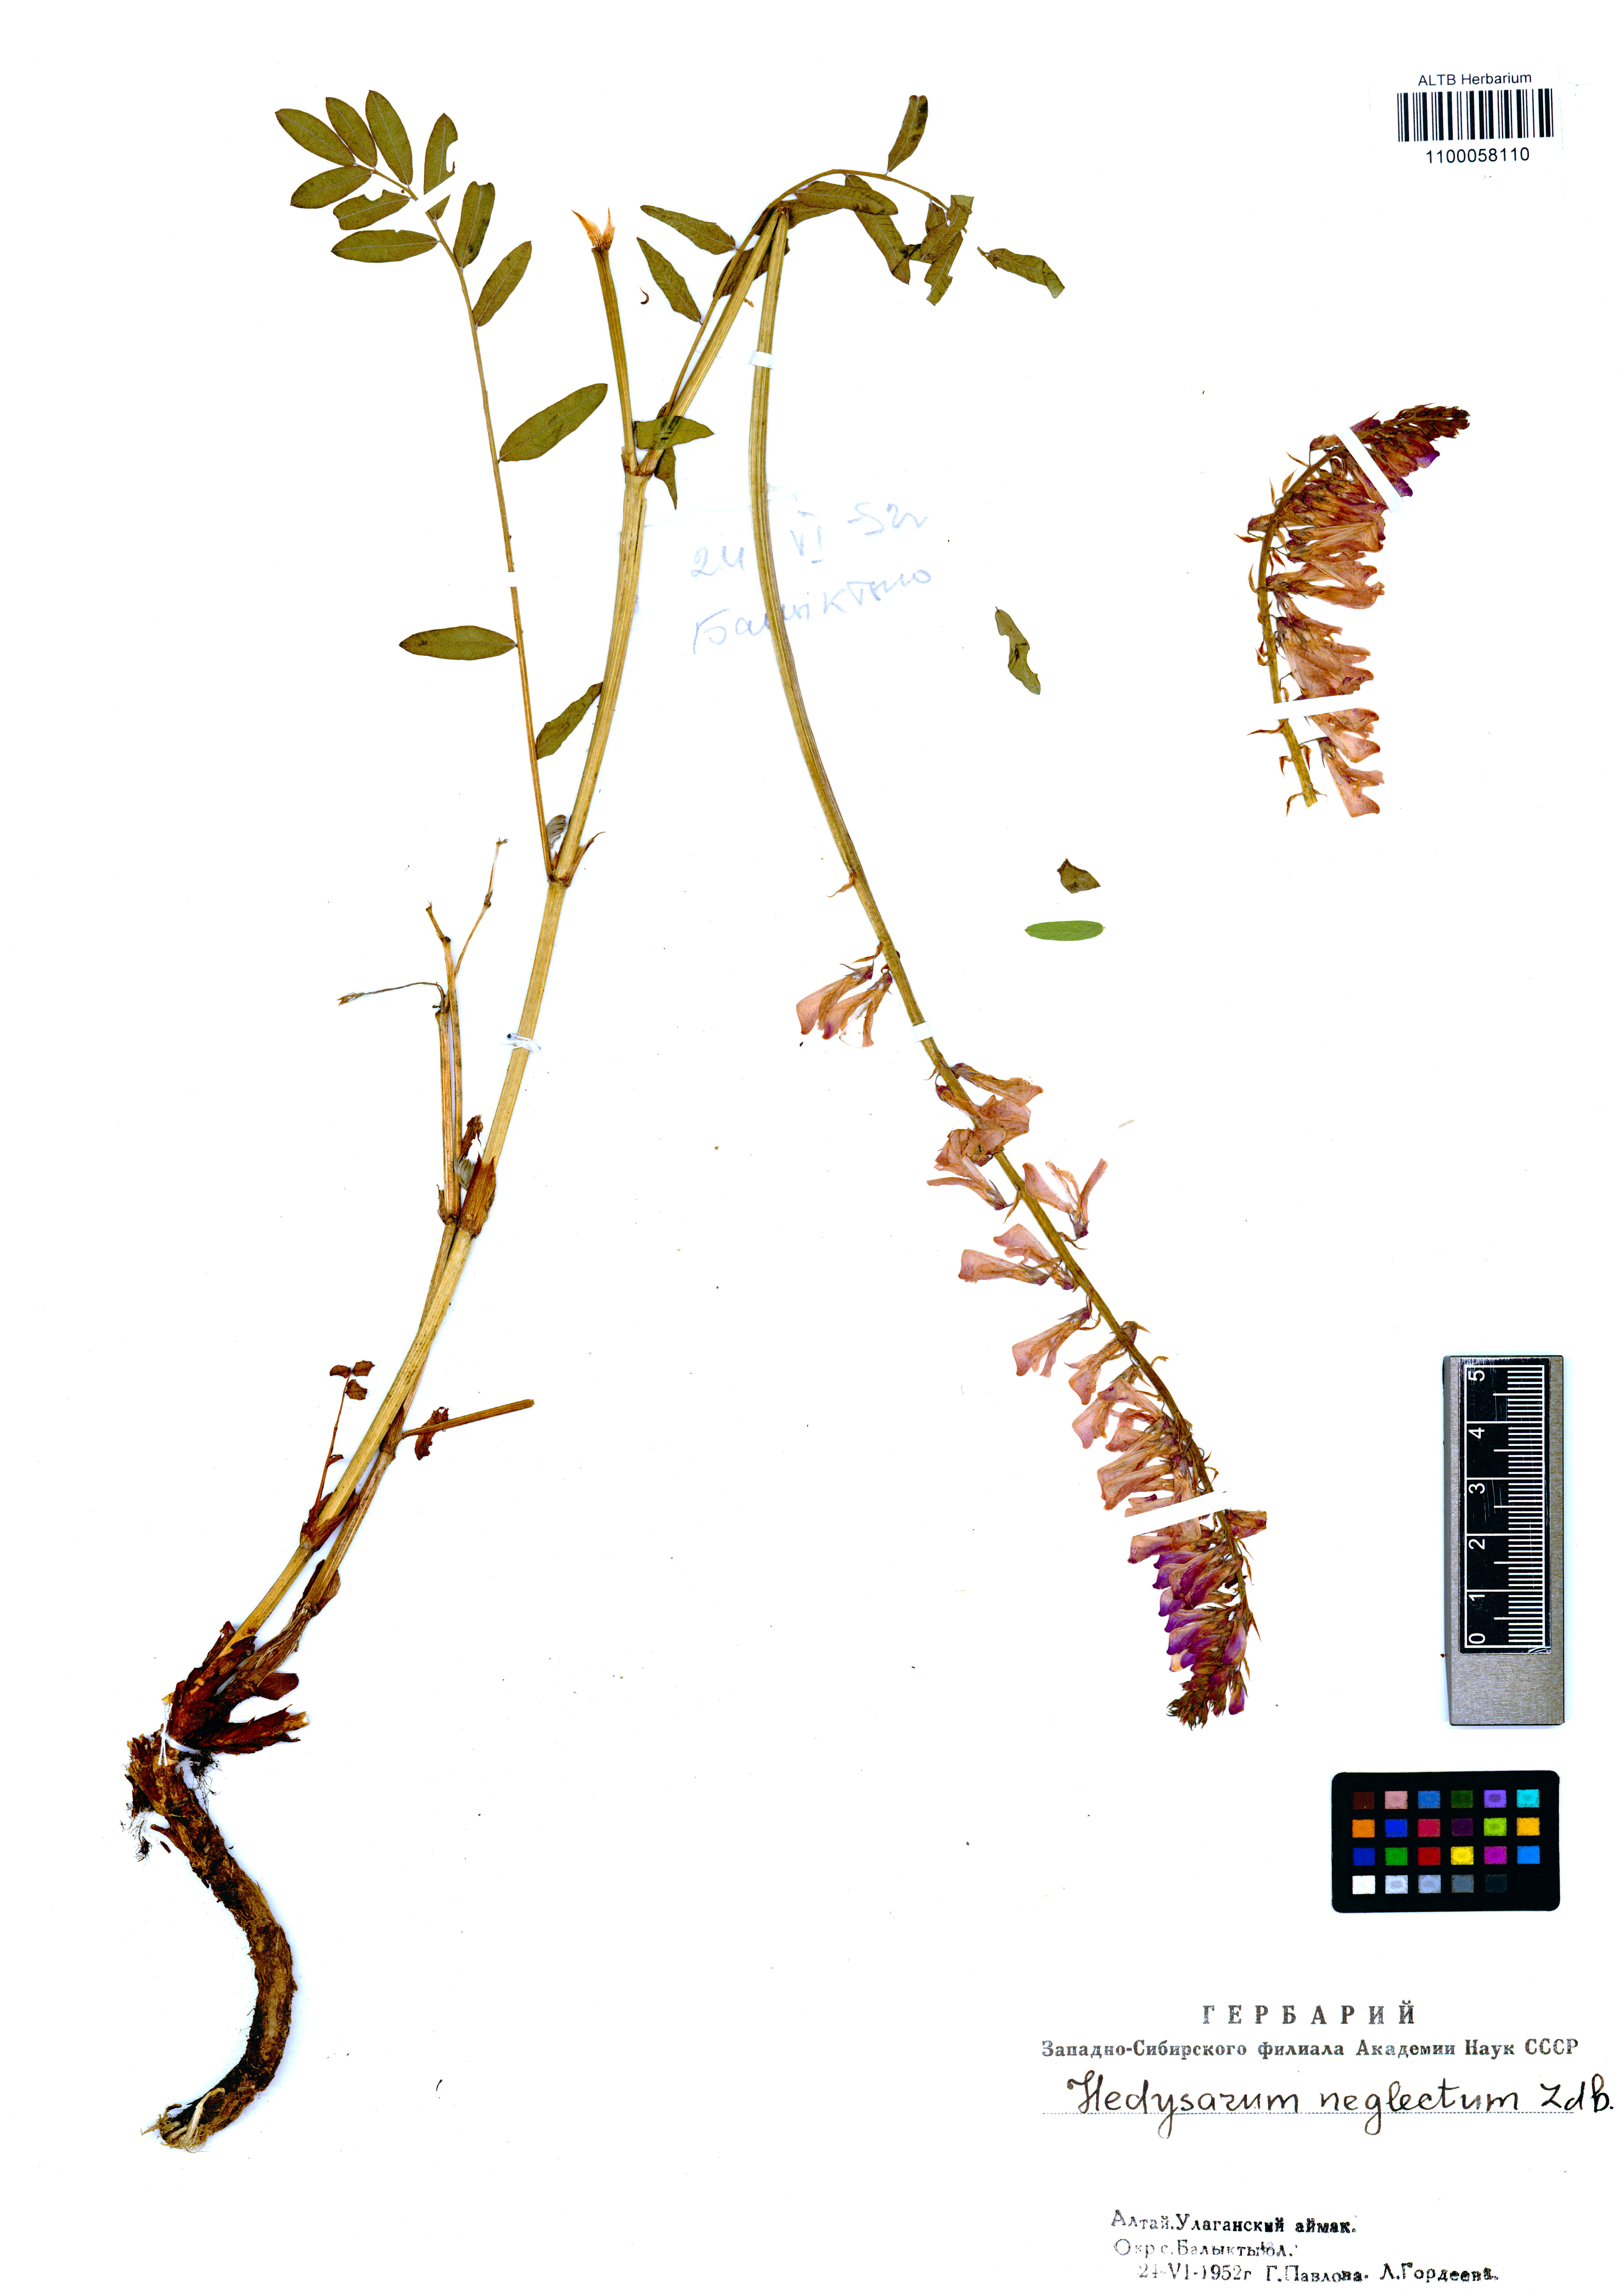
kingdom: Plantae
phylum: Tracheophyta
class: Magnoliopsida
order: Fabales
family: Fabaceae
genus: Hedysarum
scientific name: Hedysarum neglectum
